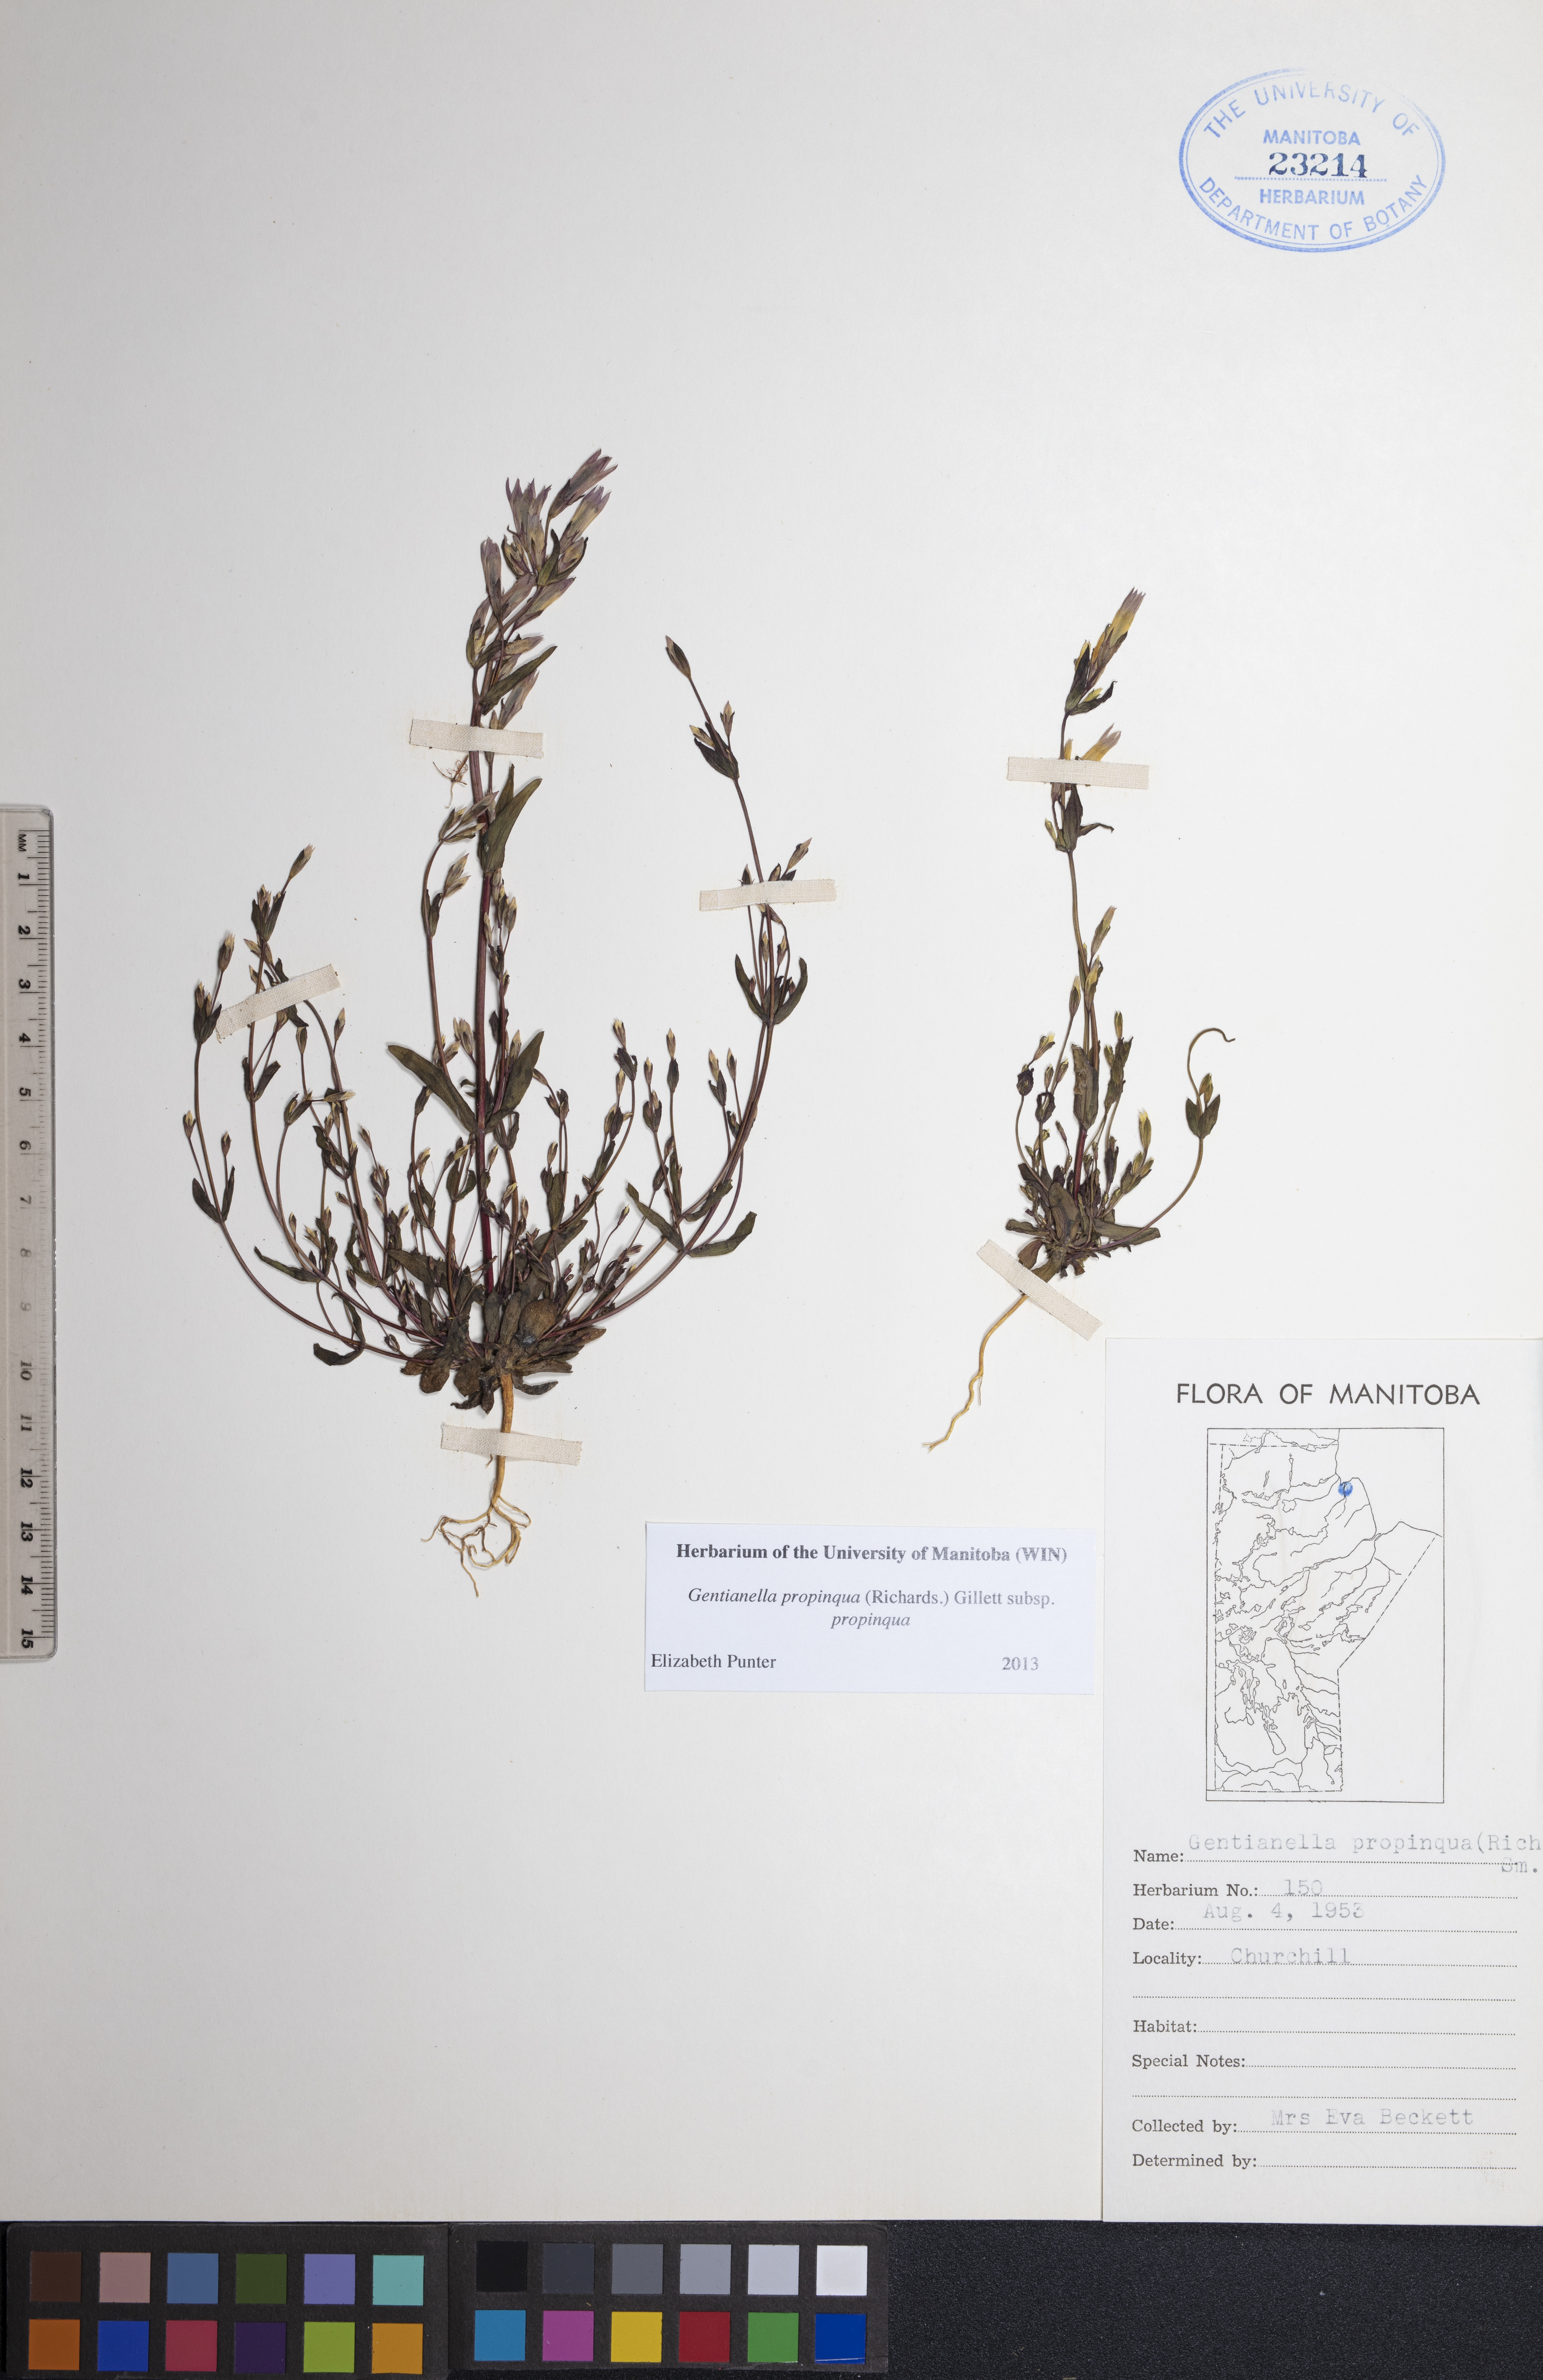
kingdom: Plantae
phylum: Tracheophyta
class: Magnoliopsida
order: Gentianales
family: Gentianaceae
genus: Gentianella
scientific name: Gentianella propinqua
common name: Four-parted dwarf-gentian
